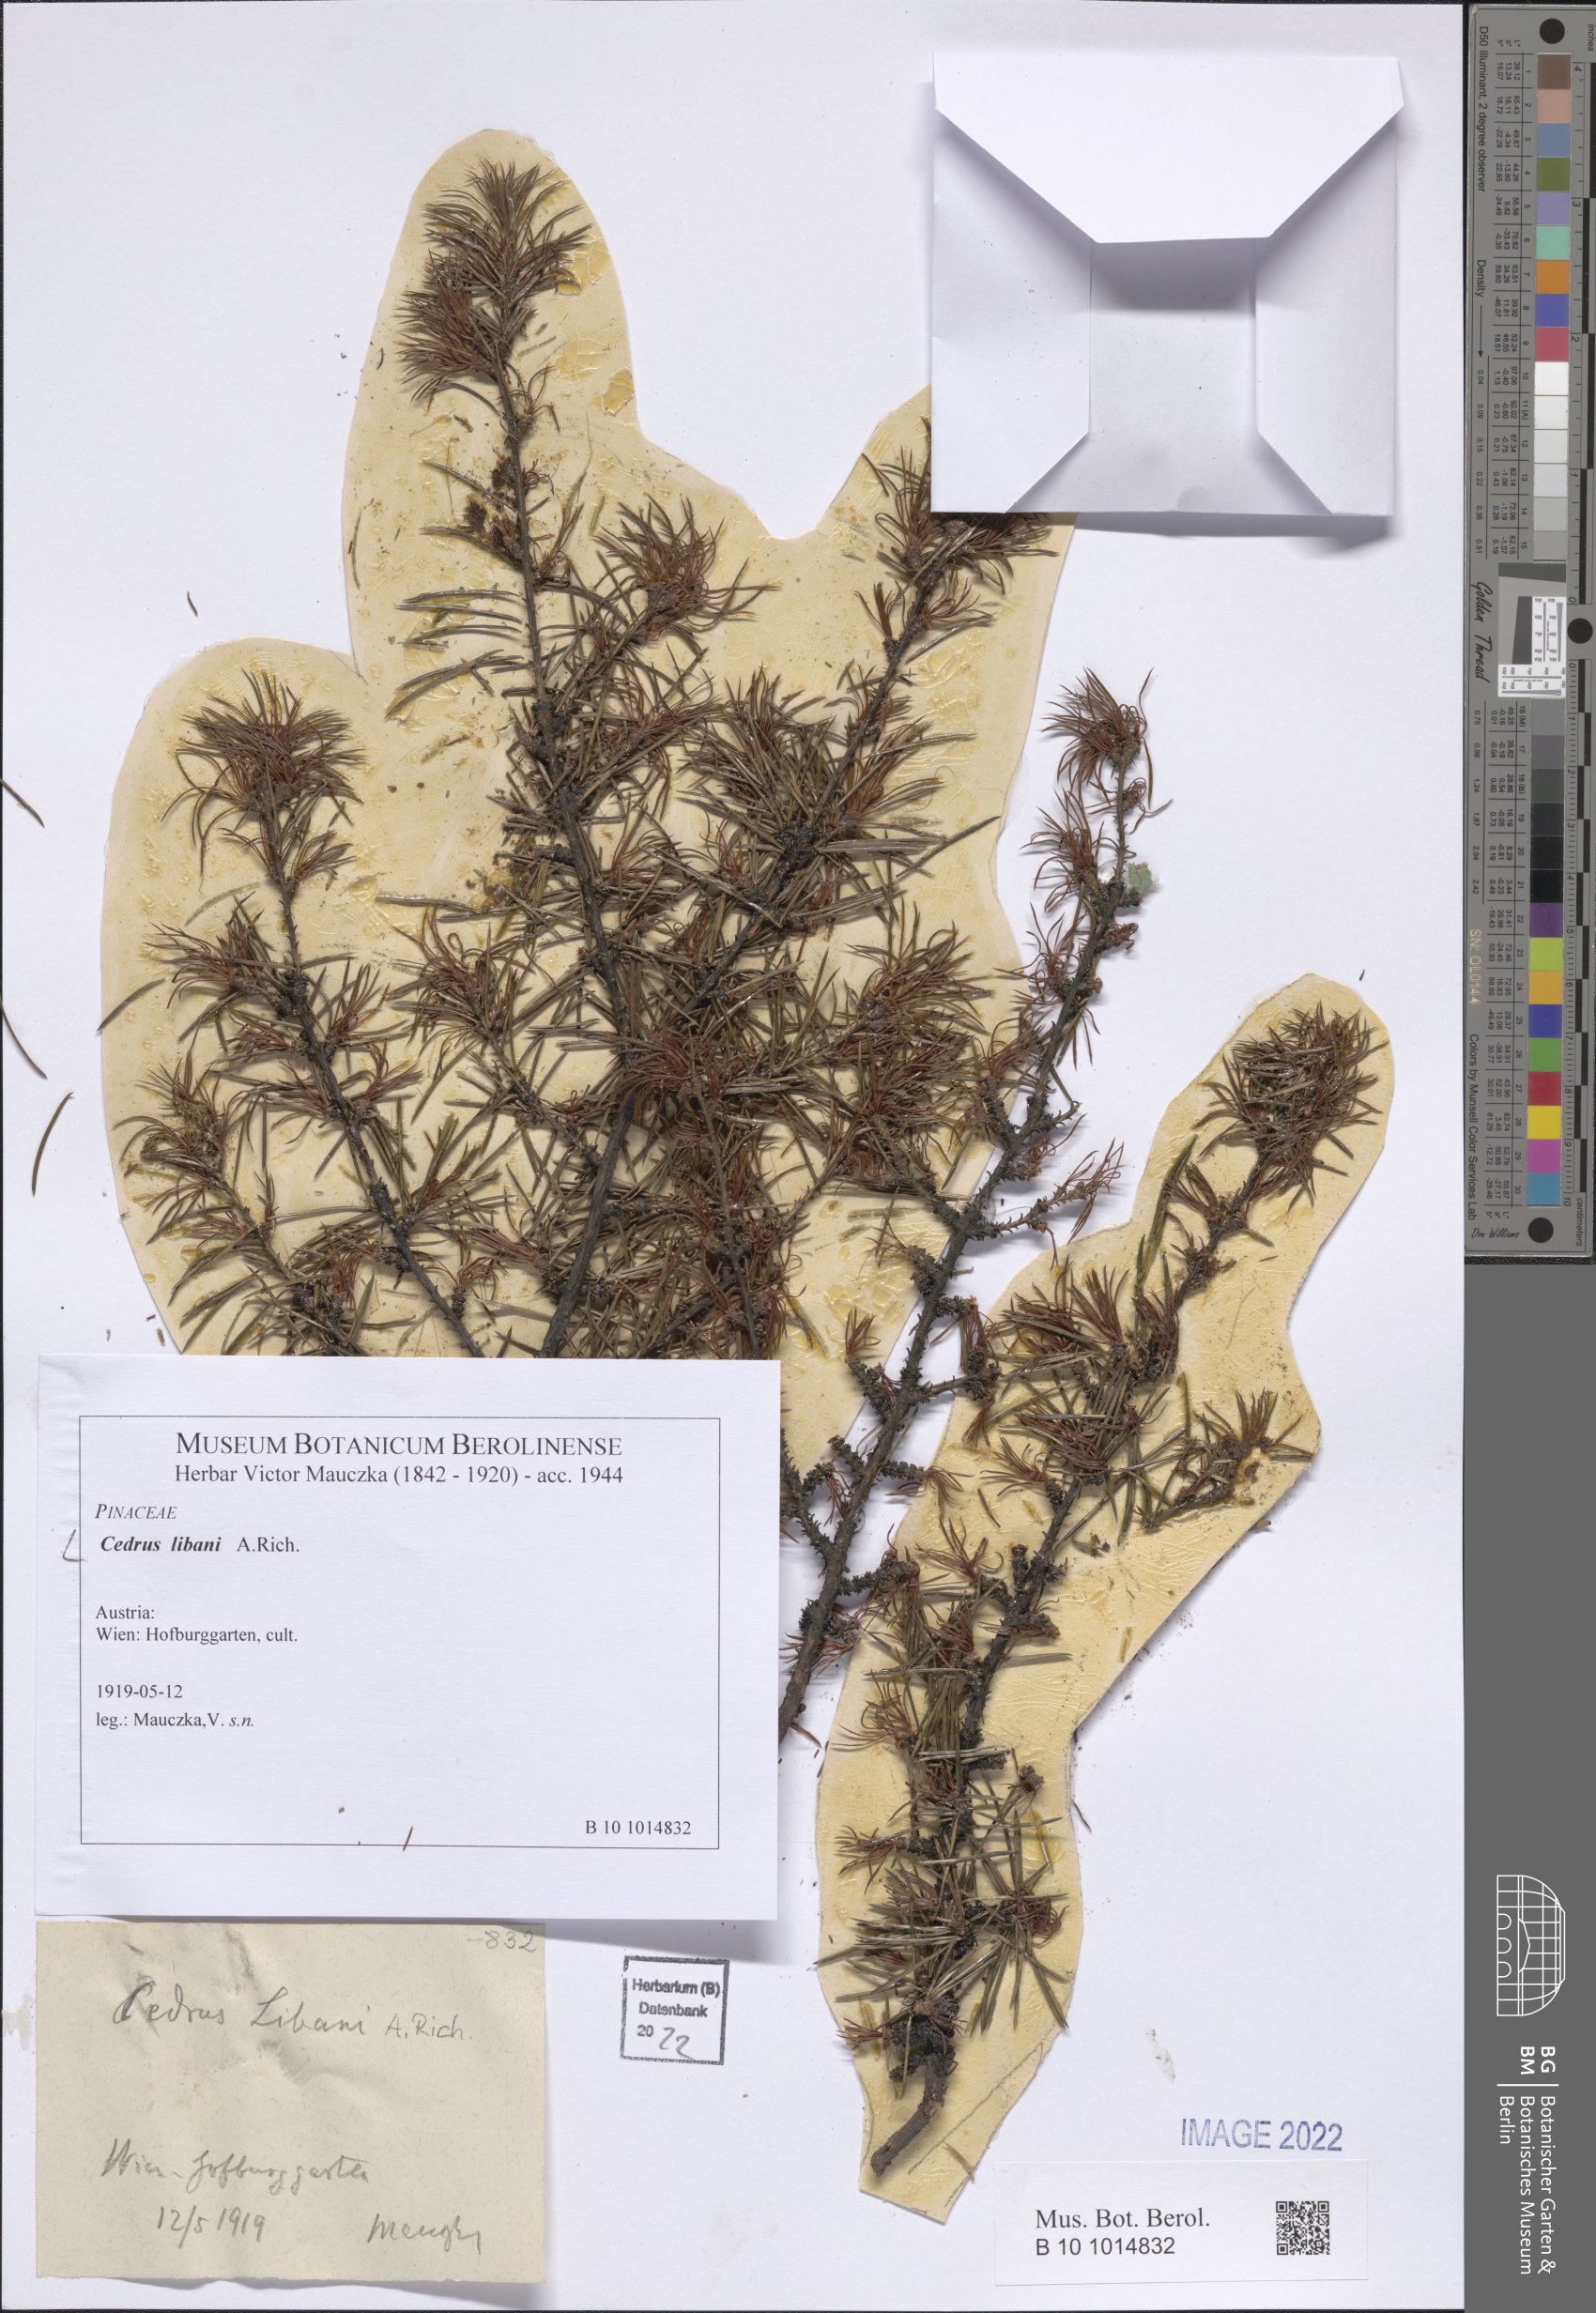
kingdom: Plantae
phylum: Tracheophyta
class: Pinopsida
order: Pinales
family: Pinaceae
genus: Cedrus
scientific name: Cedrus libani
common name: Cedar-of-lebanon
